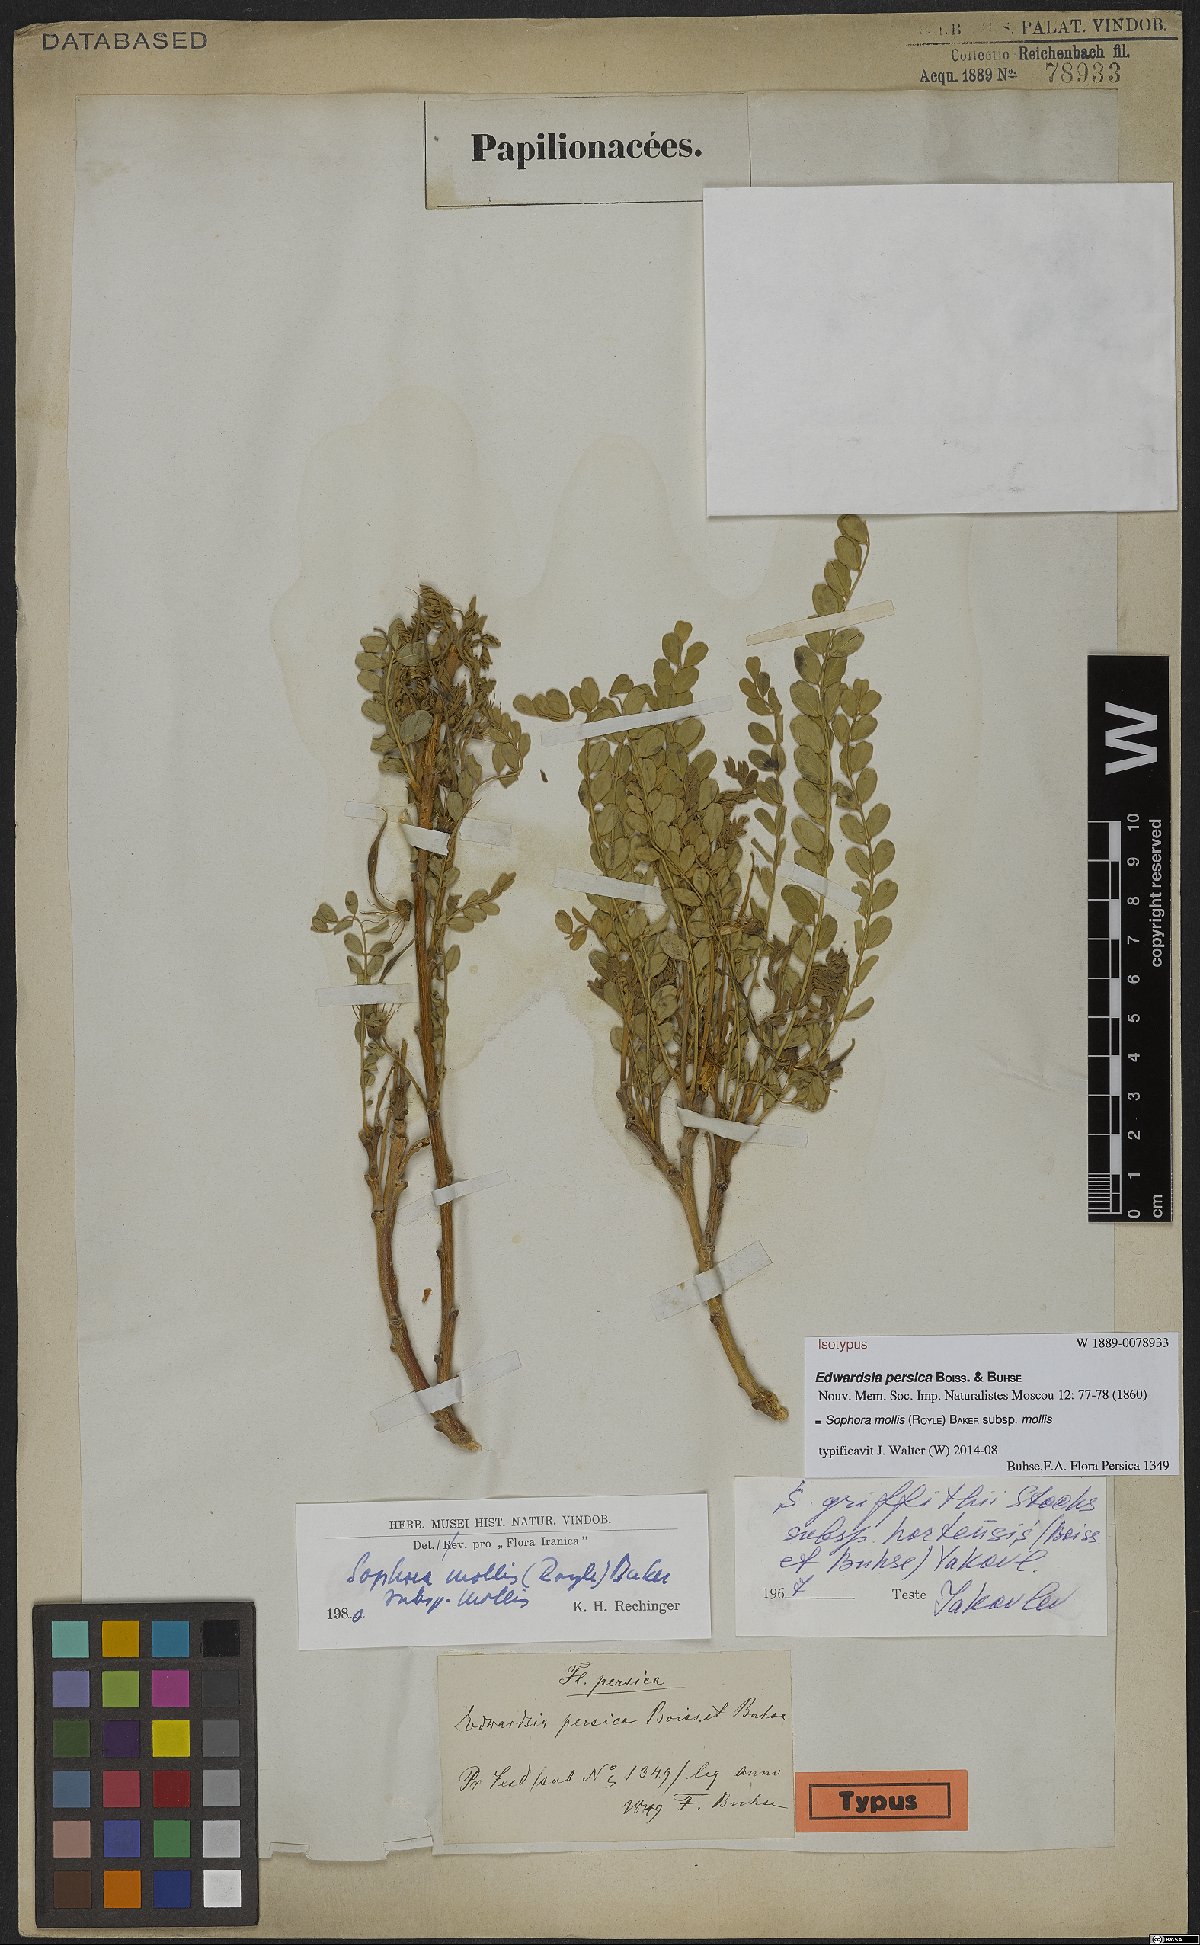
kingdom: Plantae
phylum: Tracheophyta
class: Magnoliopsida
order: Fabales
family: Fabaceae
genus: Sophora
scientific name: Sophora mollis
